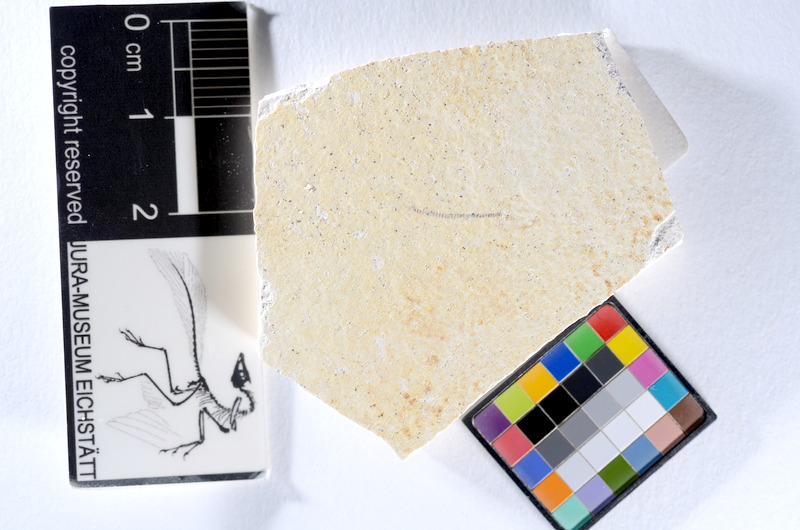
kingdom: Animalia
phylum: Chordata
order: Salmoniformes
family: Orthogonikleithridae
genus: Orthogonikleithrus
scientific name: Orthogonikleithrus hoelli
